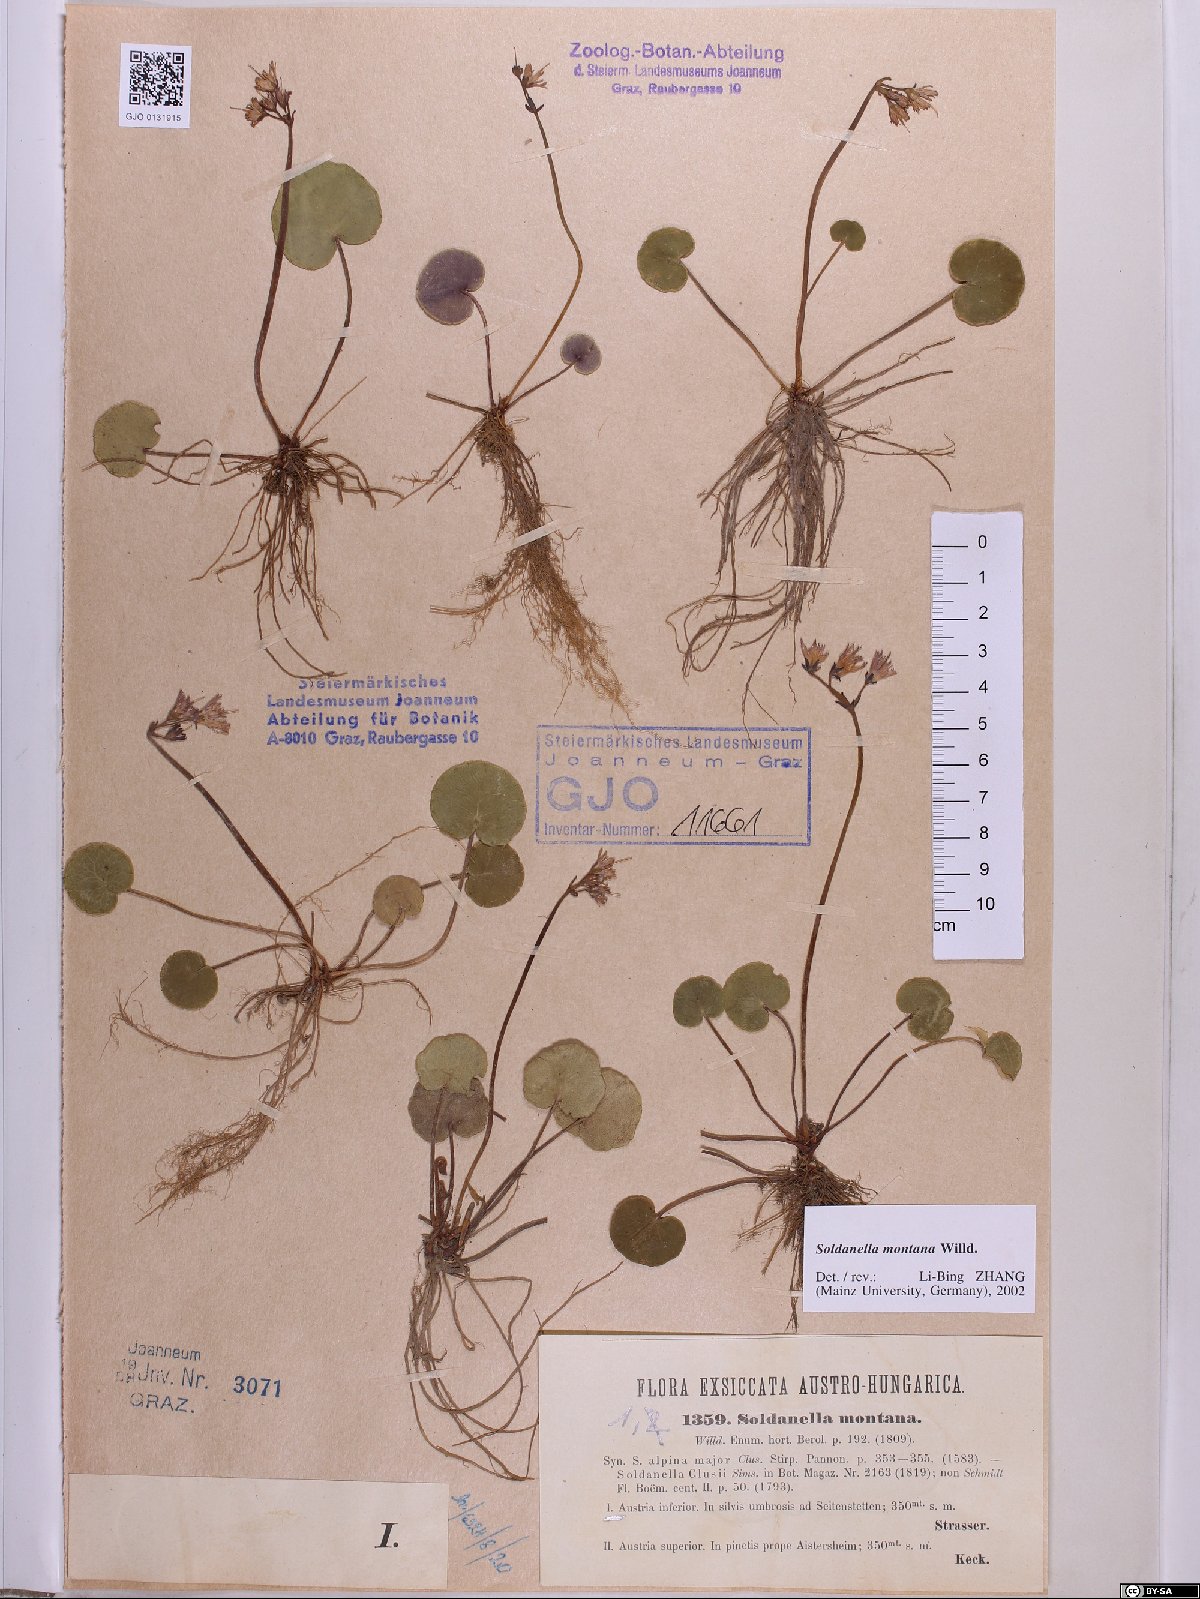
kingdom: Plantae
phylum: Tracheophyta
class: Magnoliopsida
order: Ericales
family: Primulaceae
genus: Soldanella
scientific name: Soldanella montana
